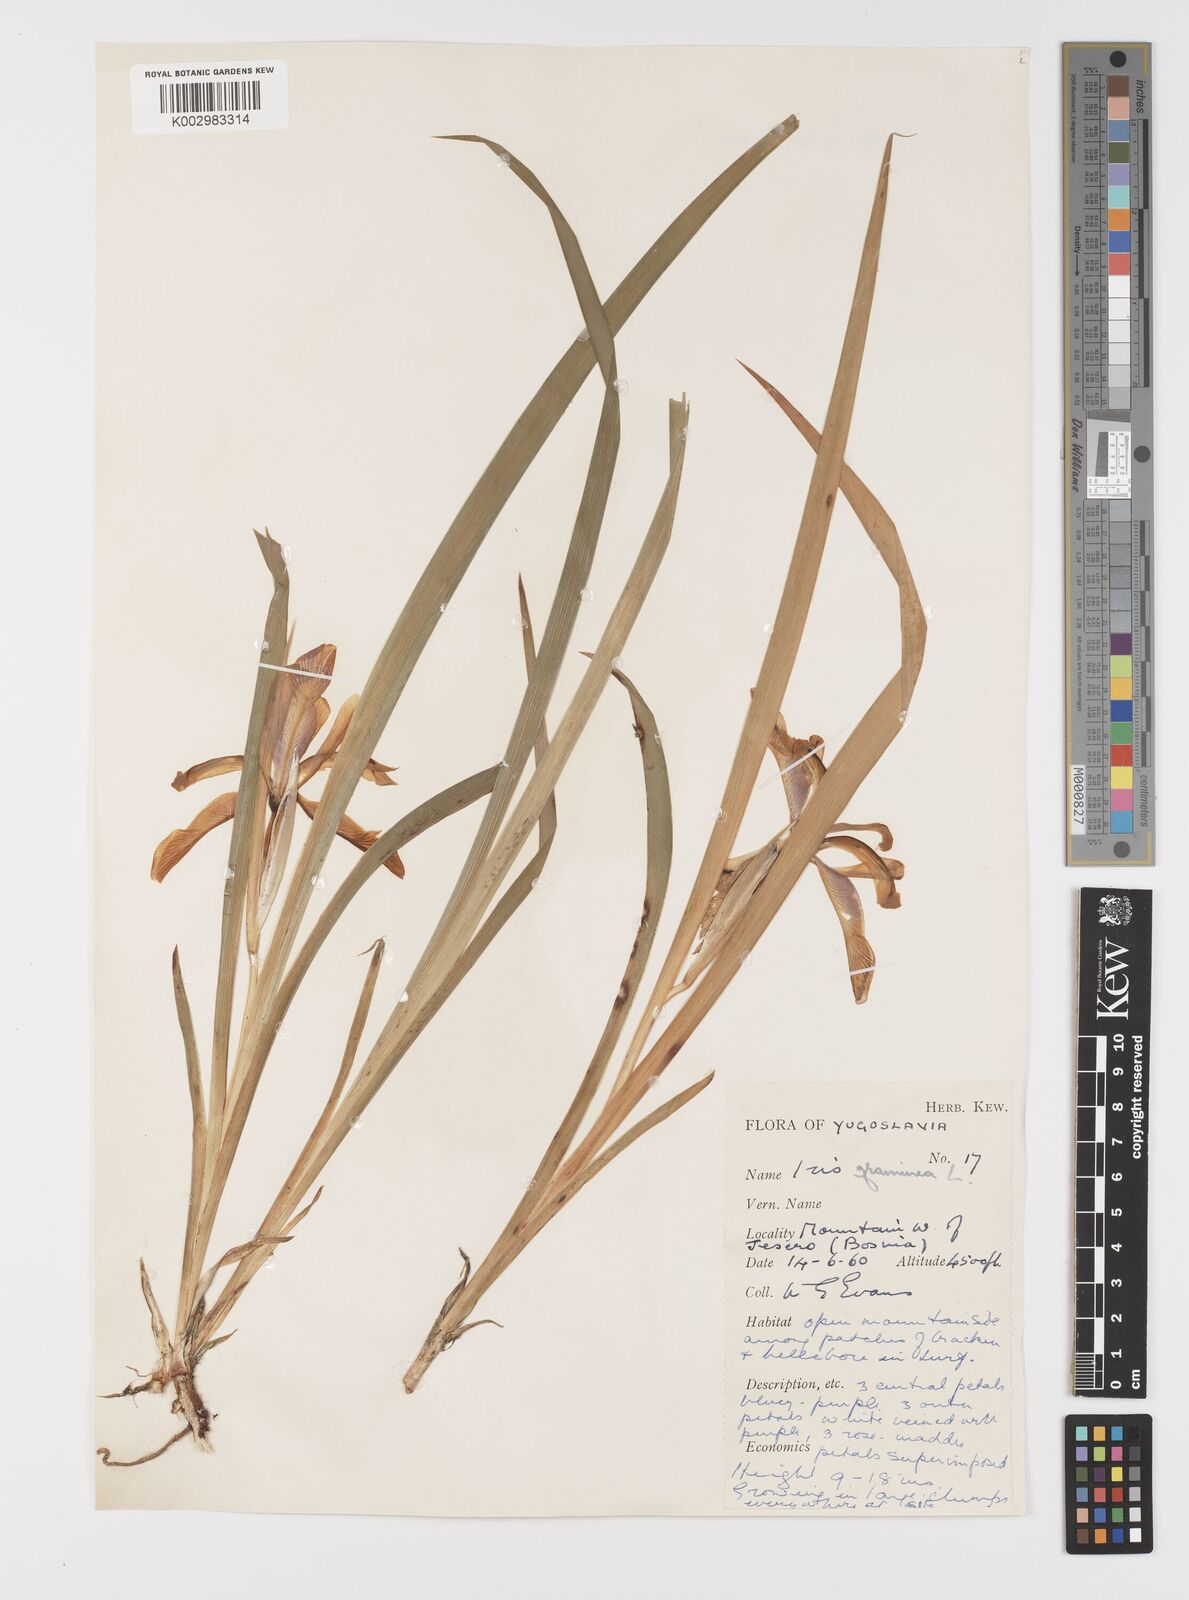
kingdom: Plantae
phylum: Tracheophyta
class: Liliopsida
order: Asparagales
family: Iridaceae
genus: Iris
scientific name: Iris graminea
